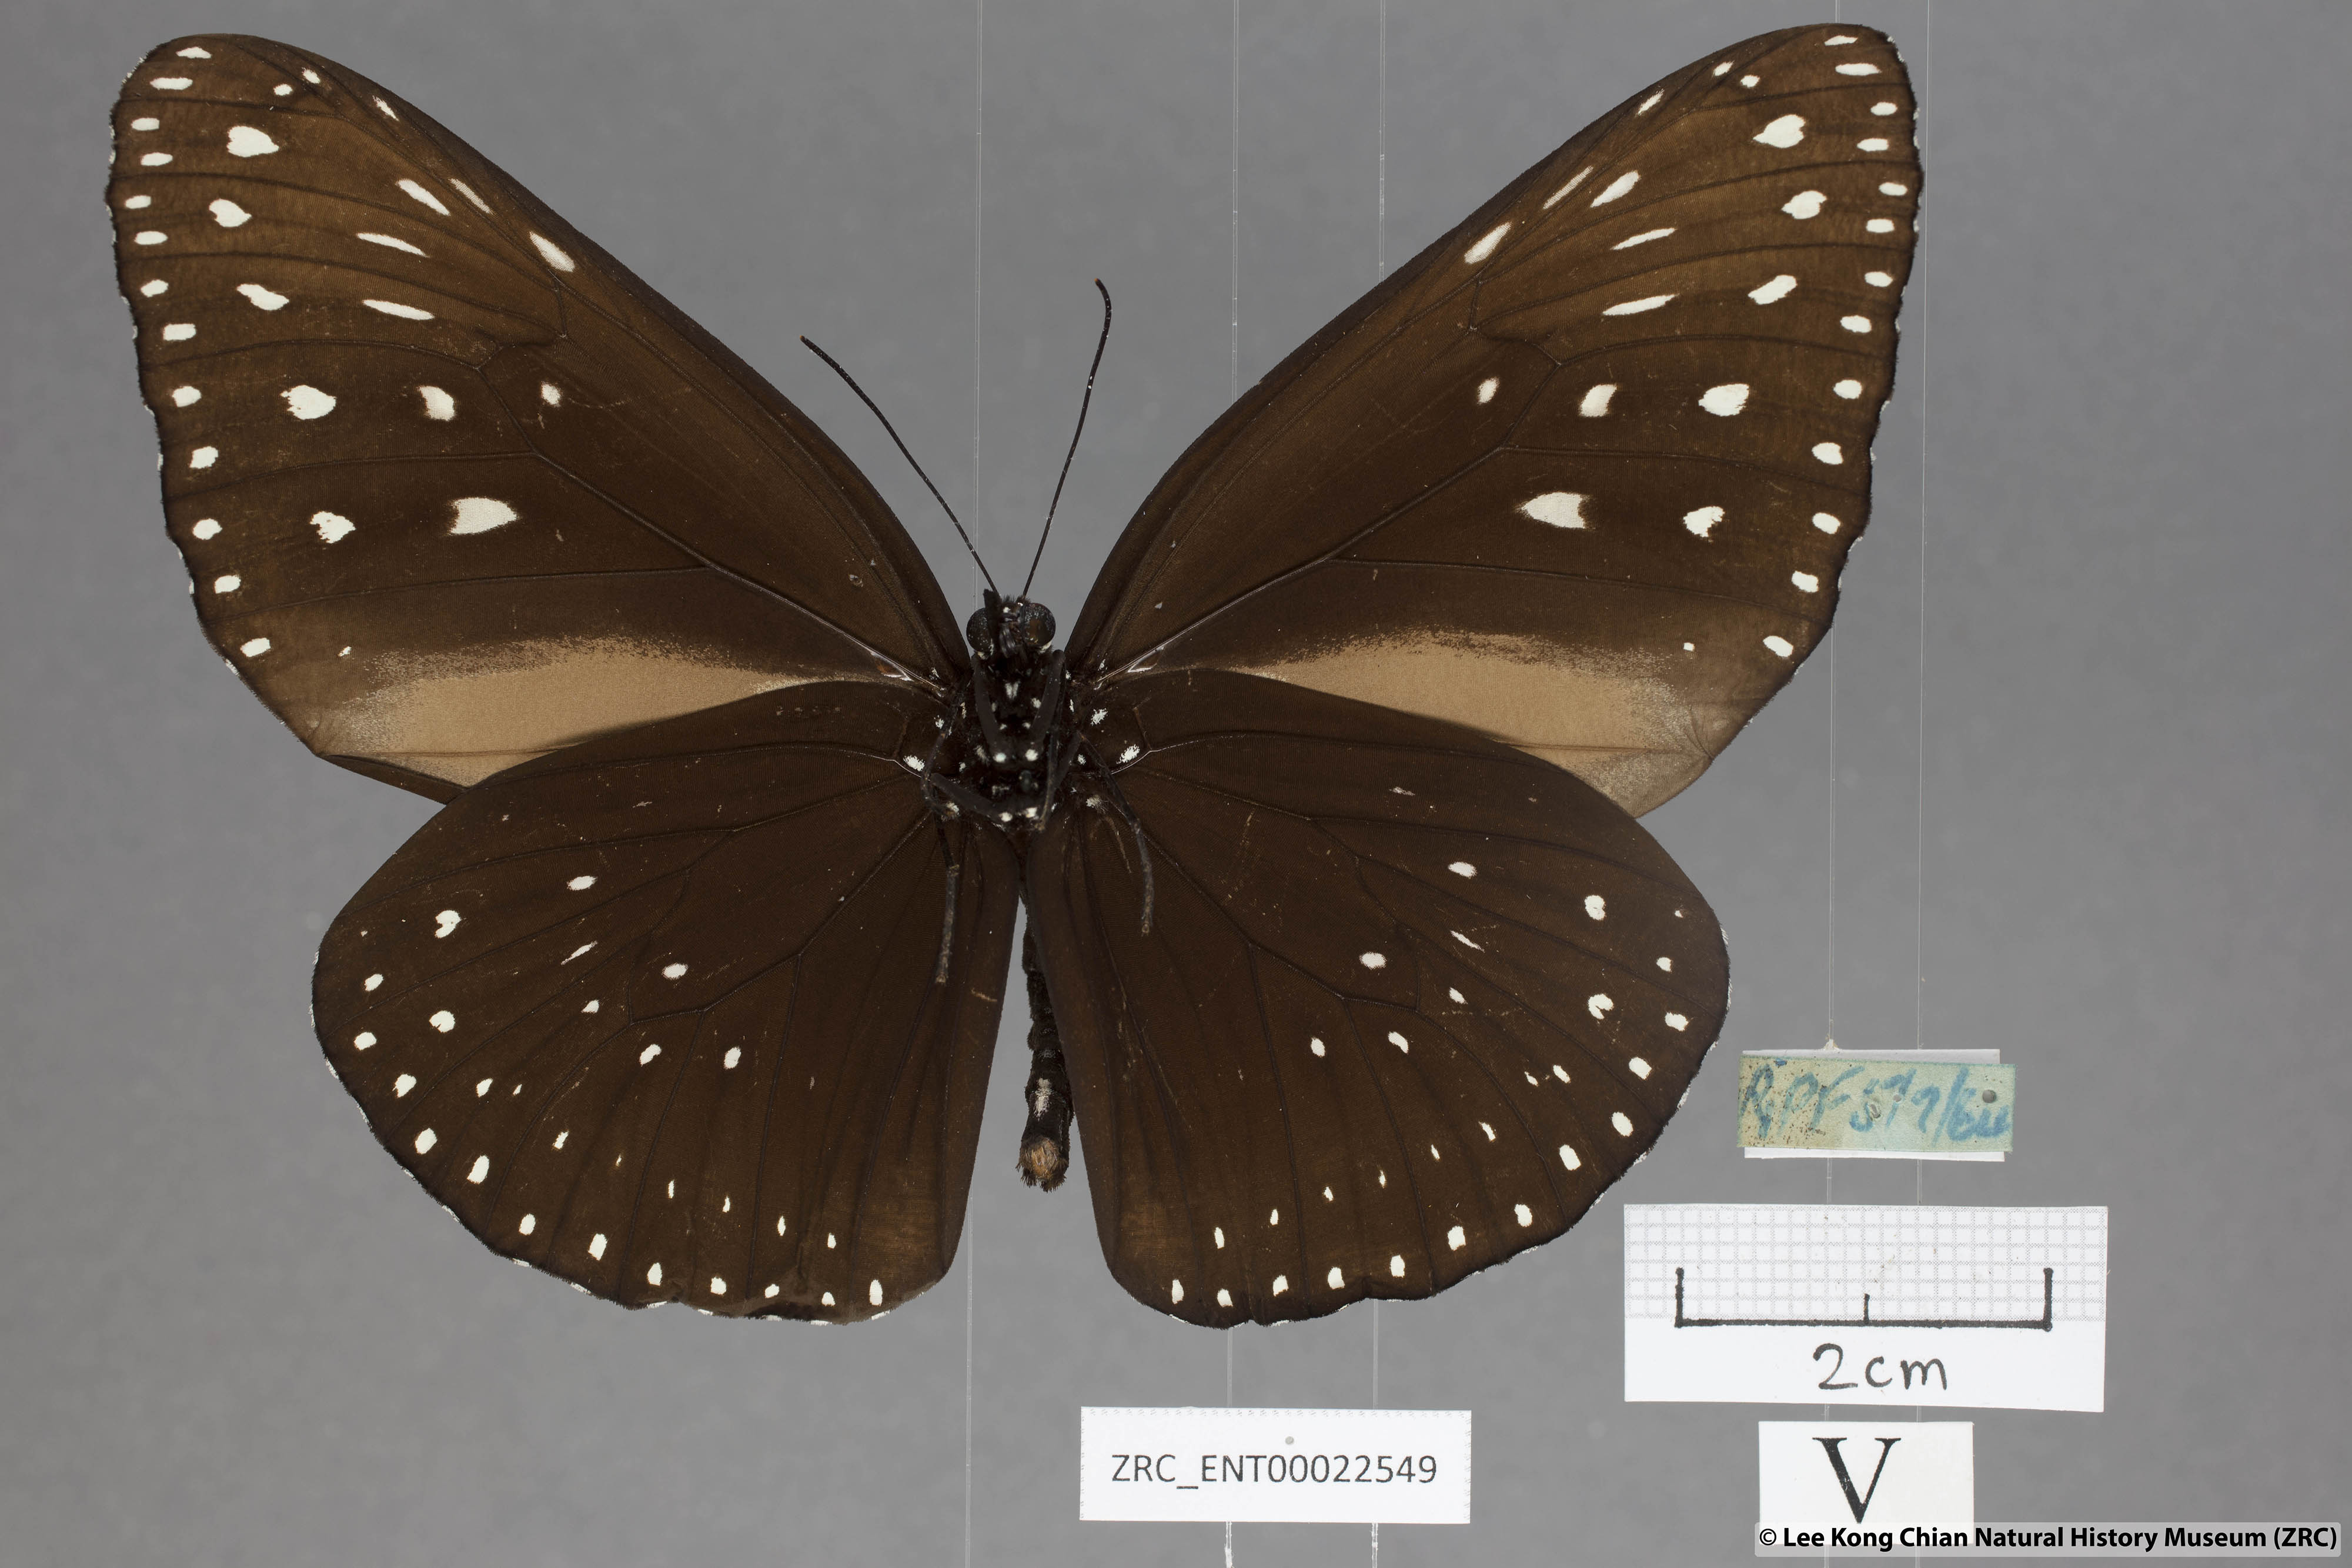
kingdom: Animalia
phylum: Arthropoda
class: Insecta
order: Lepidoptera
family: Nymphalidae
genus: Euploea
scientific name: Euploea camaralzeman
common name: Malayan crow butterfly
